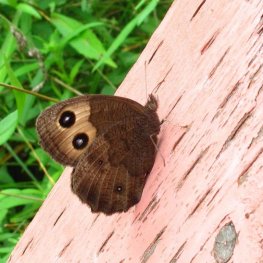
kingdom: Animalia
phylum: Arthropoda
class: Insecta
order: Lepidoptera
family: Nymphalidae
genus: Cercyonis
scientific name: Cercyonis pegala
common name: Common Wood-Nymph
